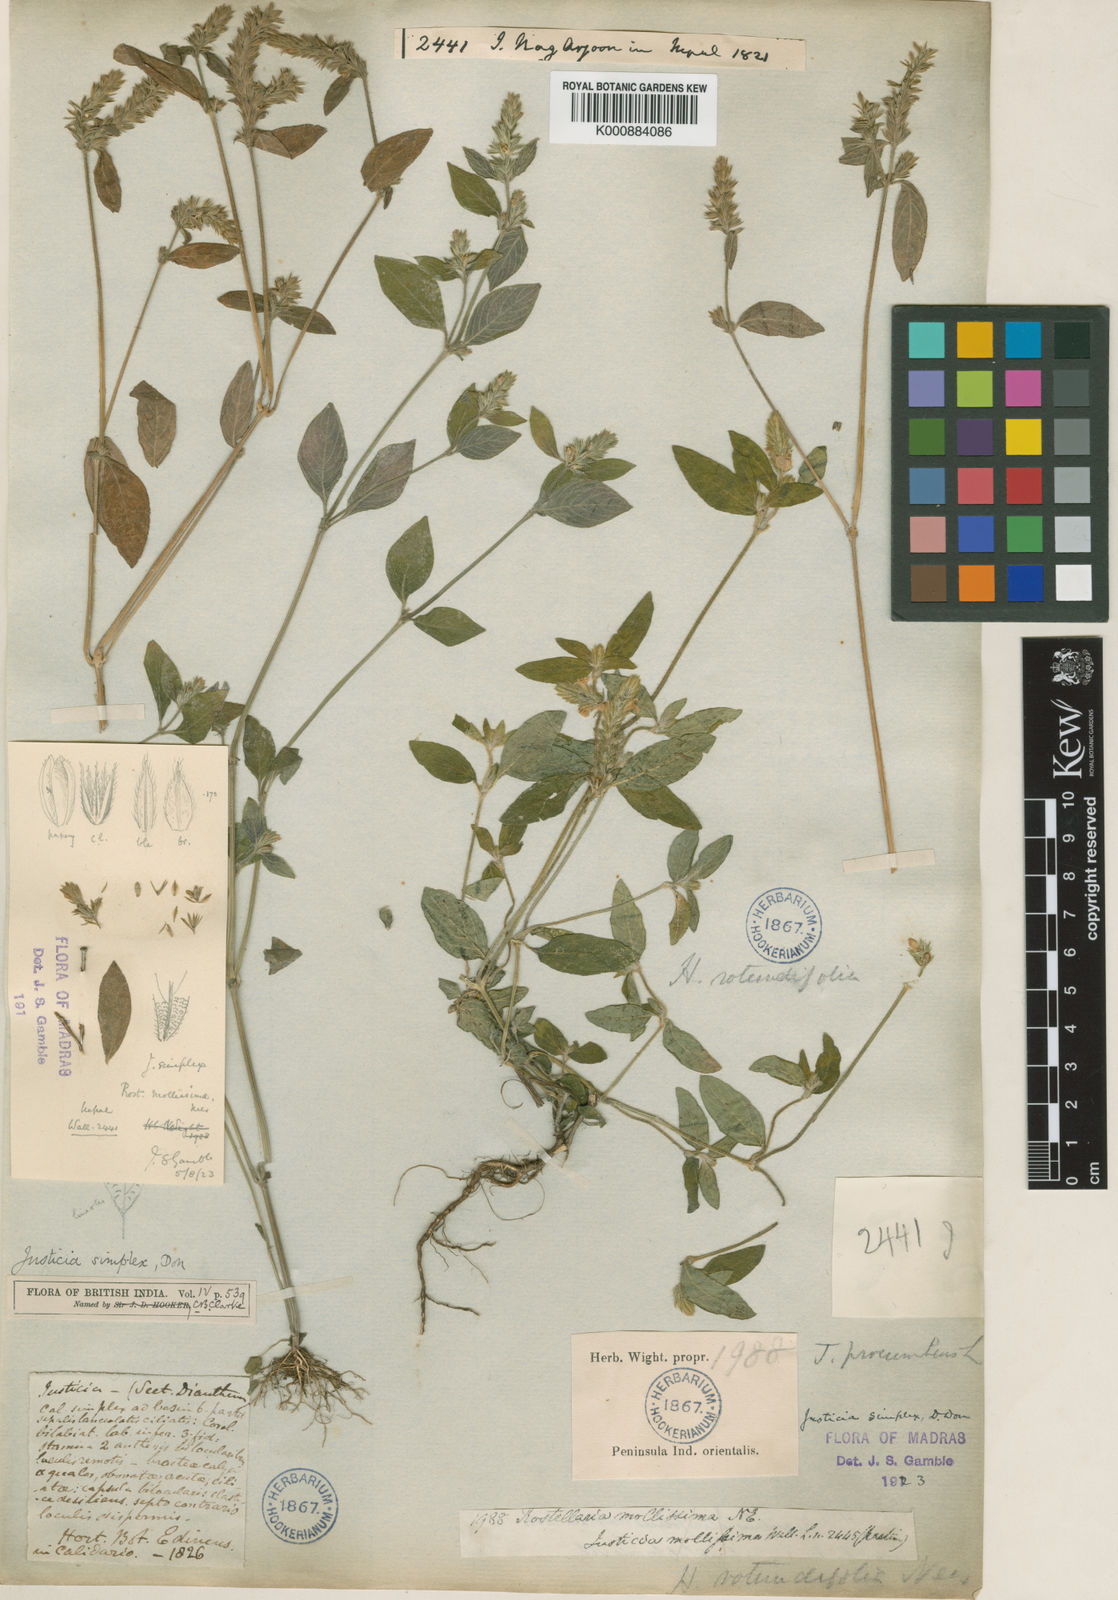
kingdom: Plantae
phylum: Tracheophyta
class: Magnoliopsida
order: Lamiales
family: Acanthaceae
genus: Rostellularia
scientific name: Rostellularia mollissima
